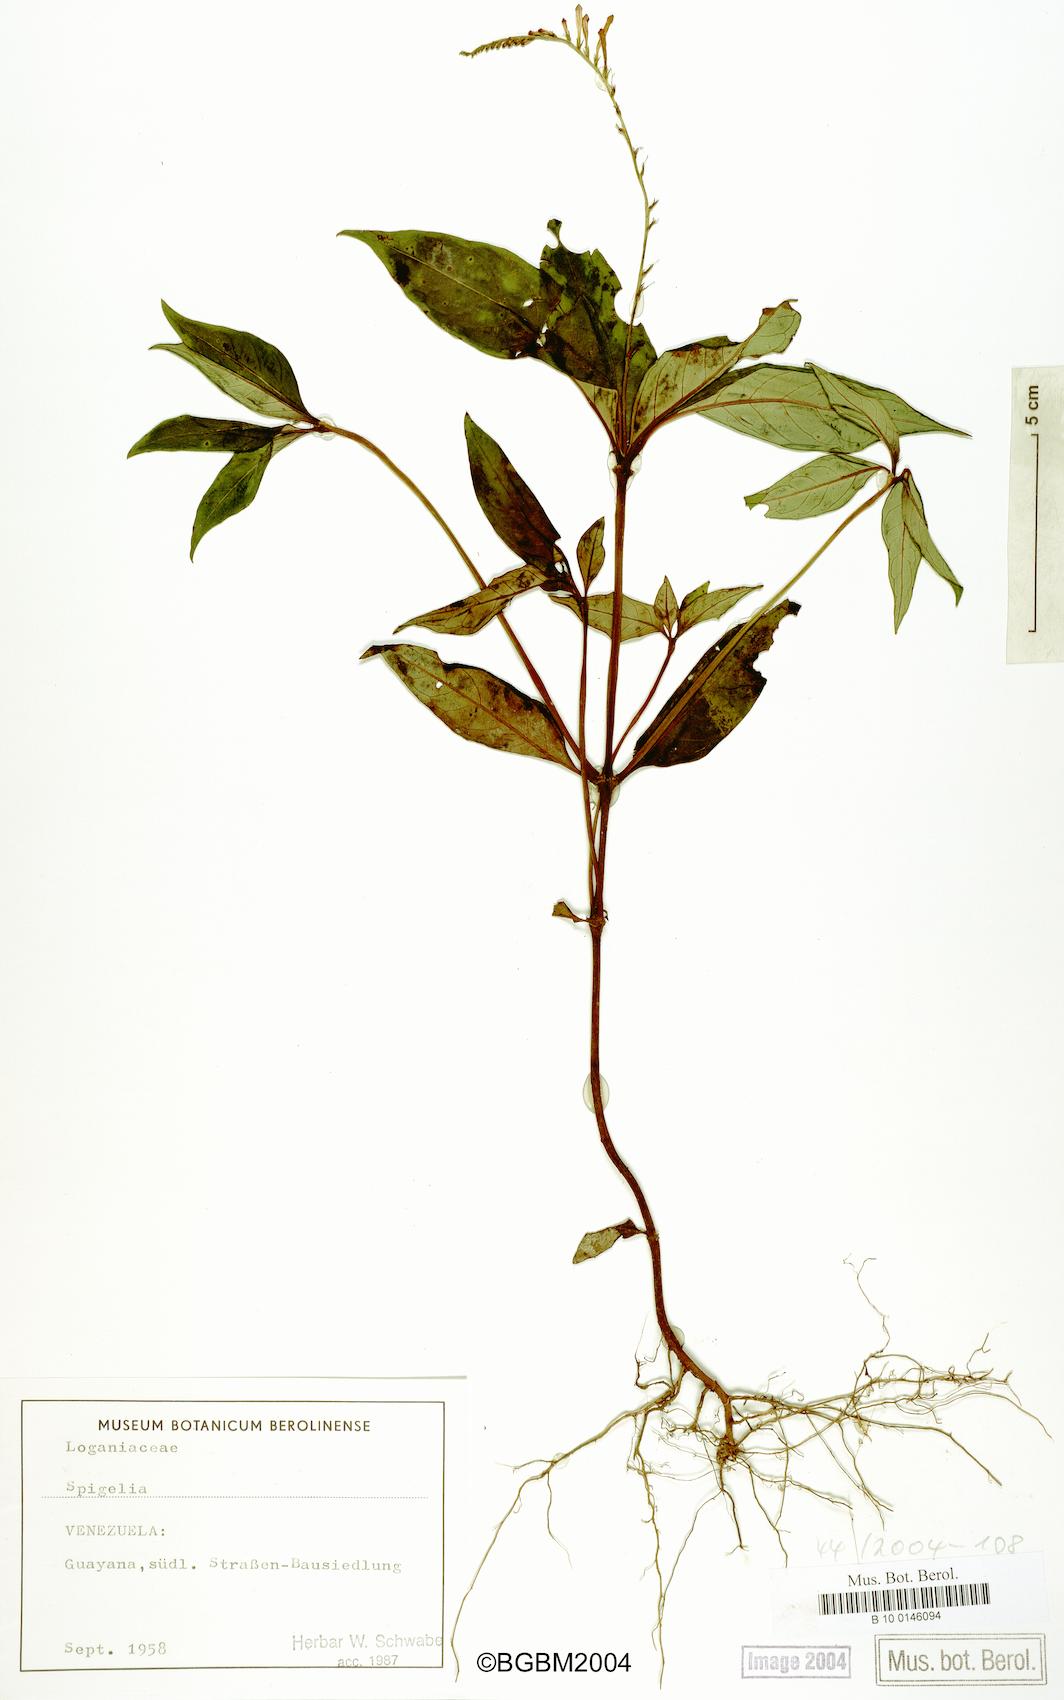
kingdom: Plantae
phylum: Tracheophyta
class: Magnoliopsida
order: Gentianales
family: Loganiaceae
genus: Spigelia
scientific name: Spigelia
